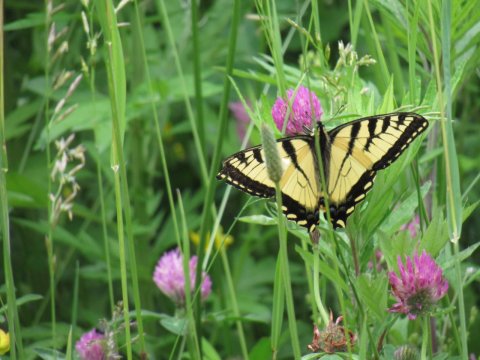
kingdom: Animalia
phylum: Arthropoda
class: Insecta
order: Lepidoptera
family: Papilionidae
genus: Pterourus
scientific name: Pterourus canadensis
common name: Canadian Tiger Swallowtail
